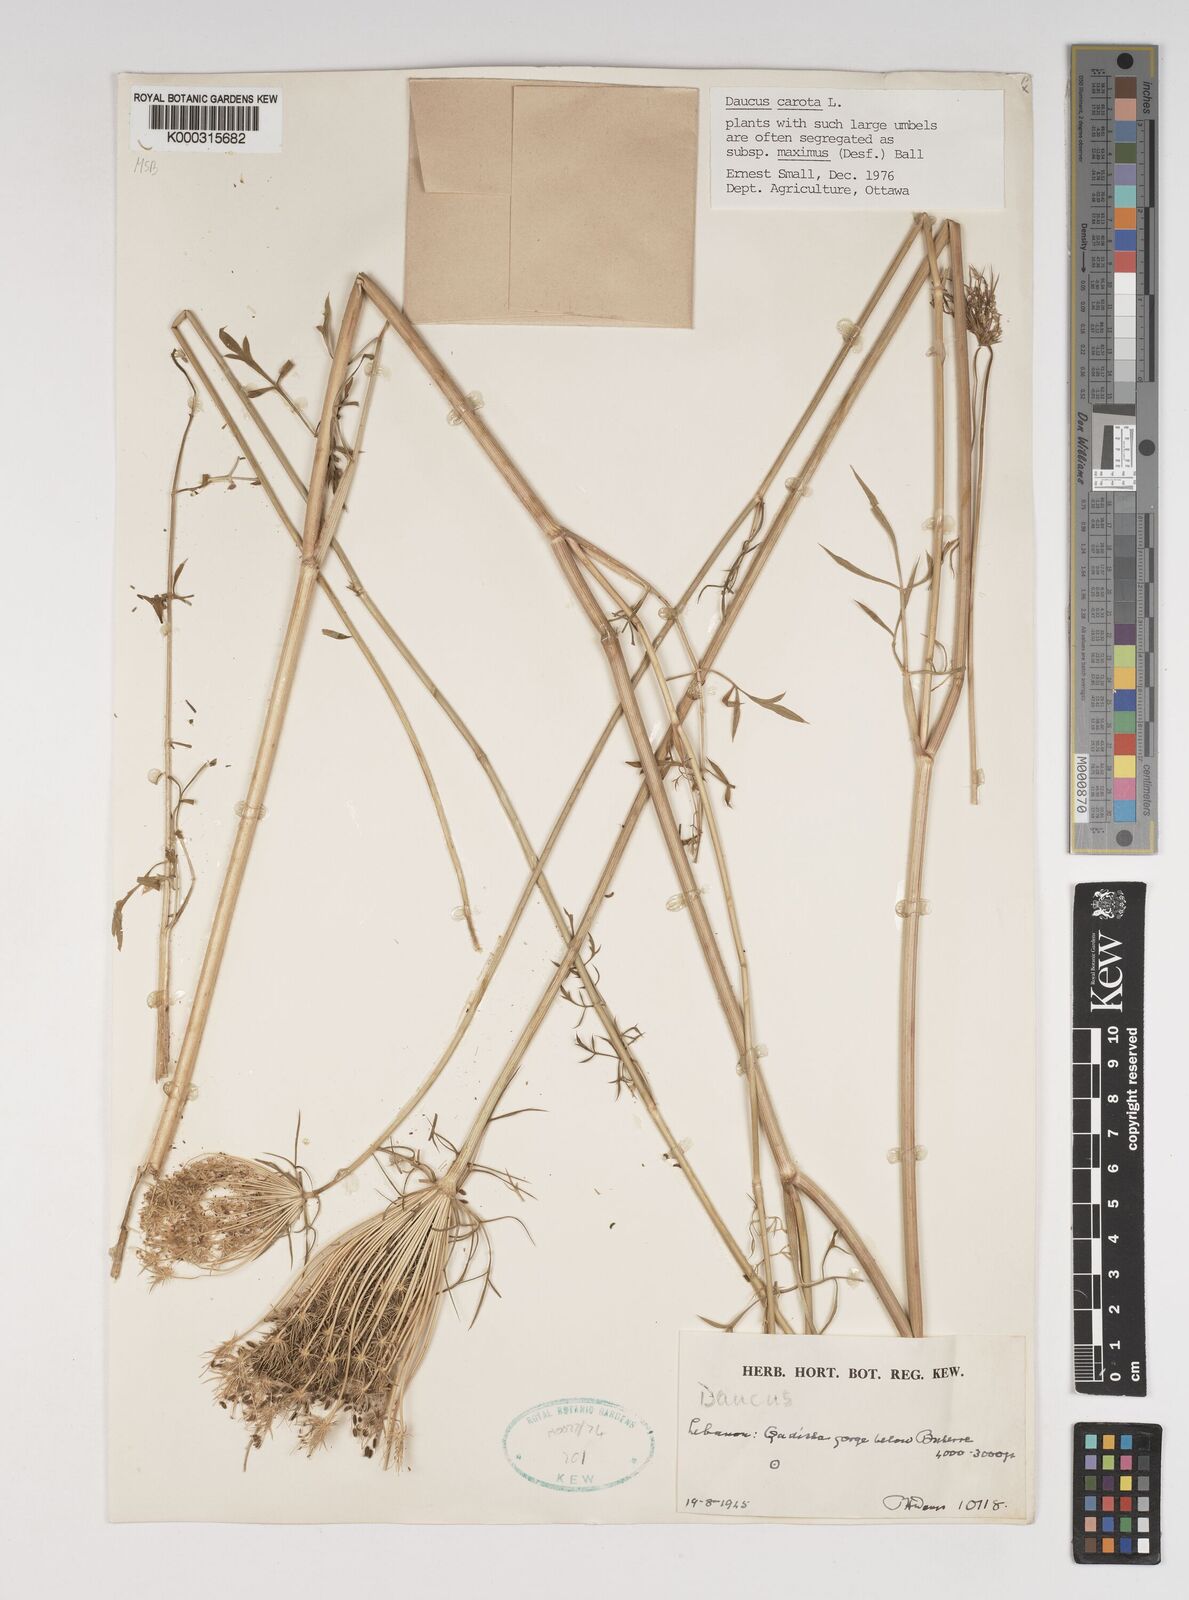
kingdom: Plantae
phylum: Tracheophyta
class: Magnoliopsida
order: Apiales
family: Apiaceae
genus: Daucus
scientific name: Daucus carota
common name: Wild carrot
